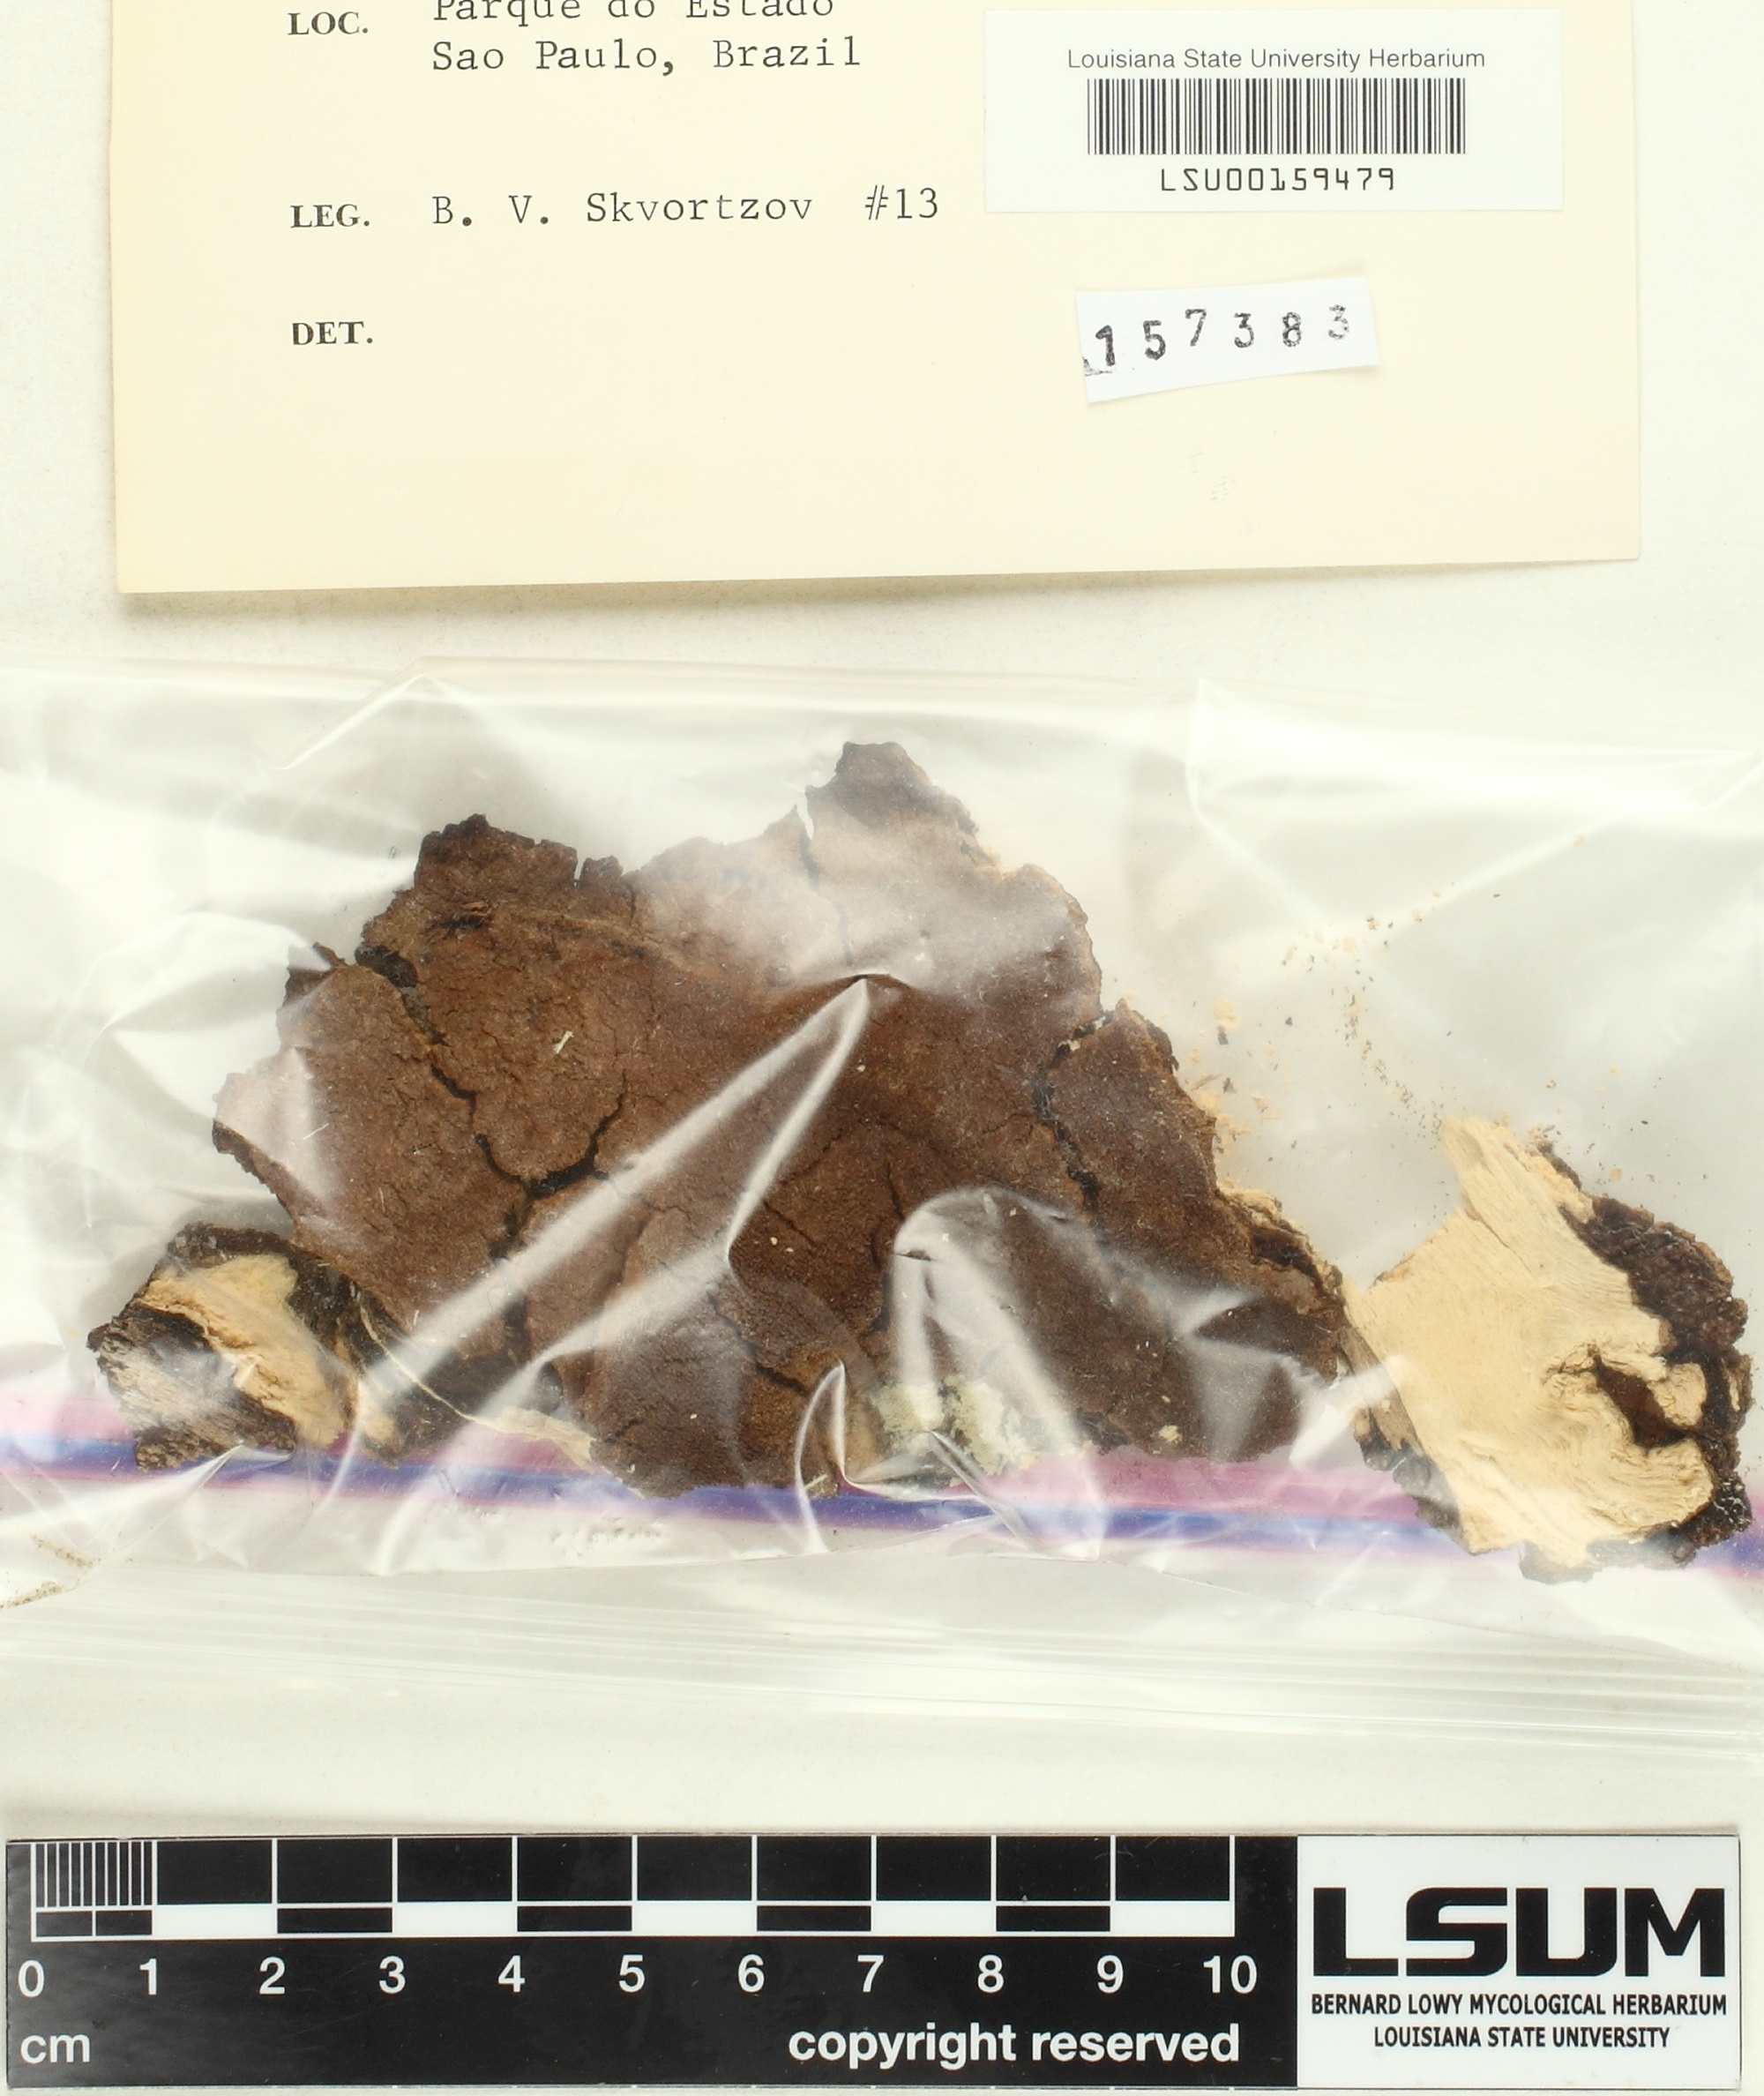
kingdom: Fungi
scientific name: Fungi
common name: Fungi
